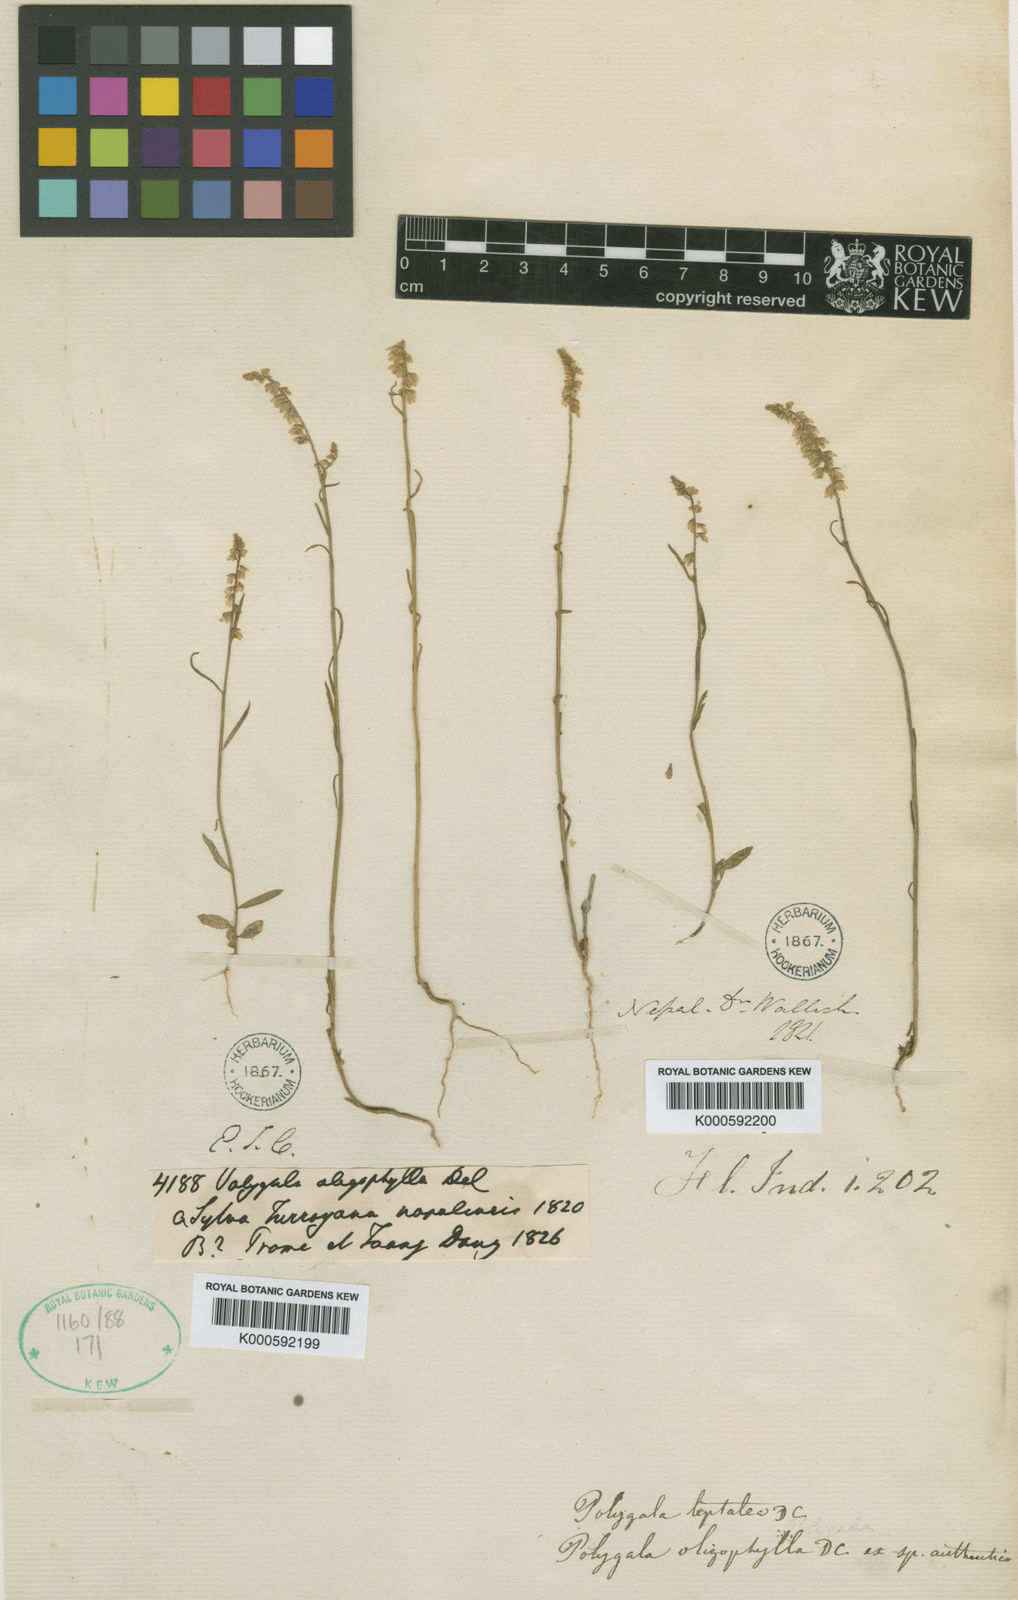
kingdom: Plantae
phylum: Tracheophyta
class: Magnoliopsida
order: Fabales
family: Polygalaceae
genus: Polygala
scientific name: Polygala longifolia
